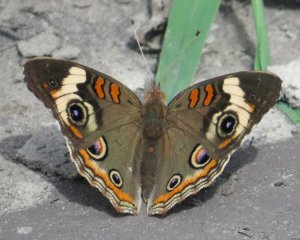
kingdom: Animalia
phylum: Arthropoda
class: Insecta
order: Lepidoptera
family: Nymphalidae
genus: Junonia
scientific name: Junonia coenia
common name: Common Buckeye
